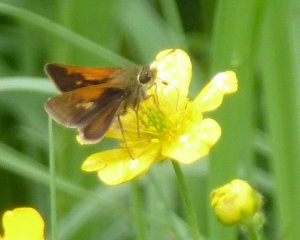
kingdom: Animalia
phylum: Arthropoda
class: Insecta
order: Lepidoptera
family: Hesperiidae
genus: Polites
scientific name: Polites themistocles
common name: Tawny-edged Skipper
